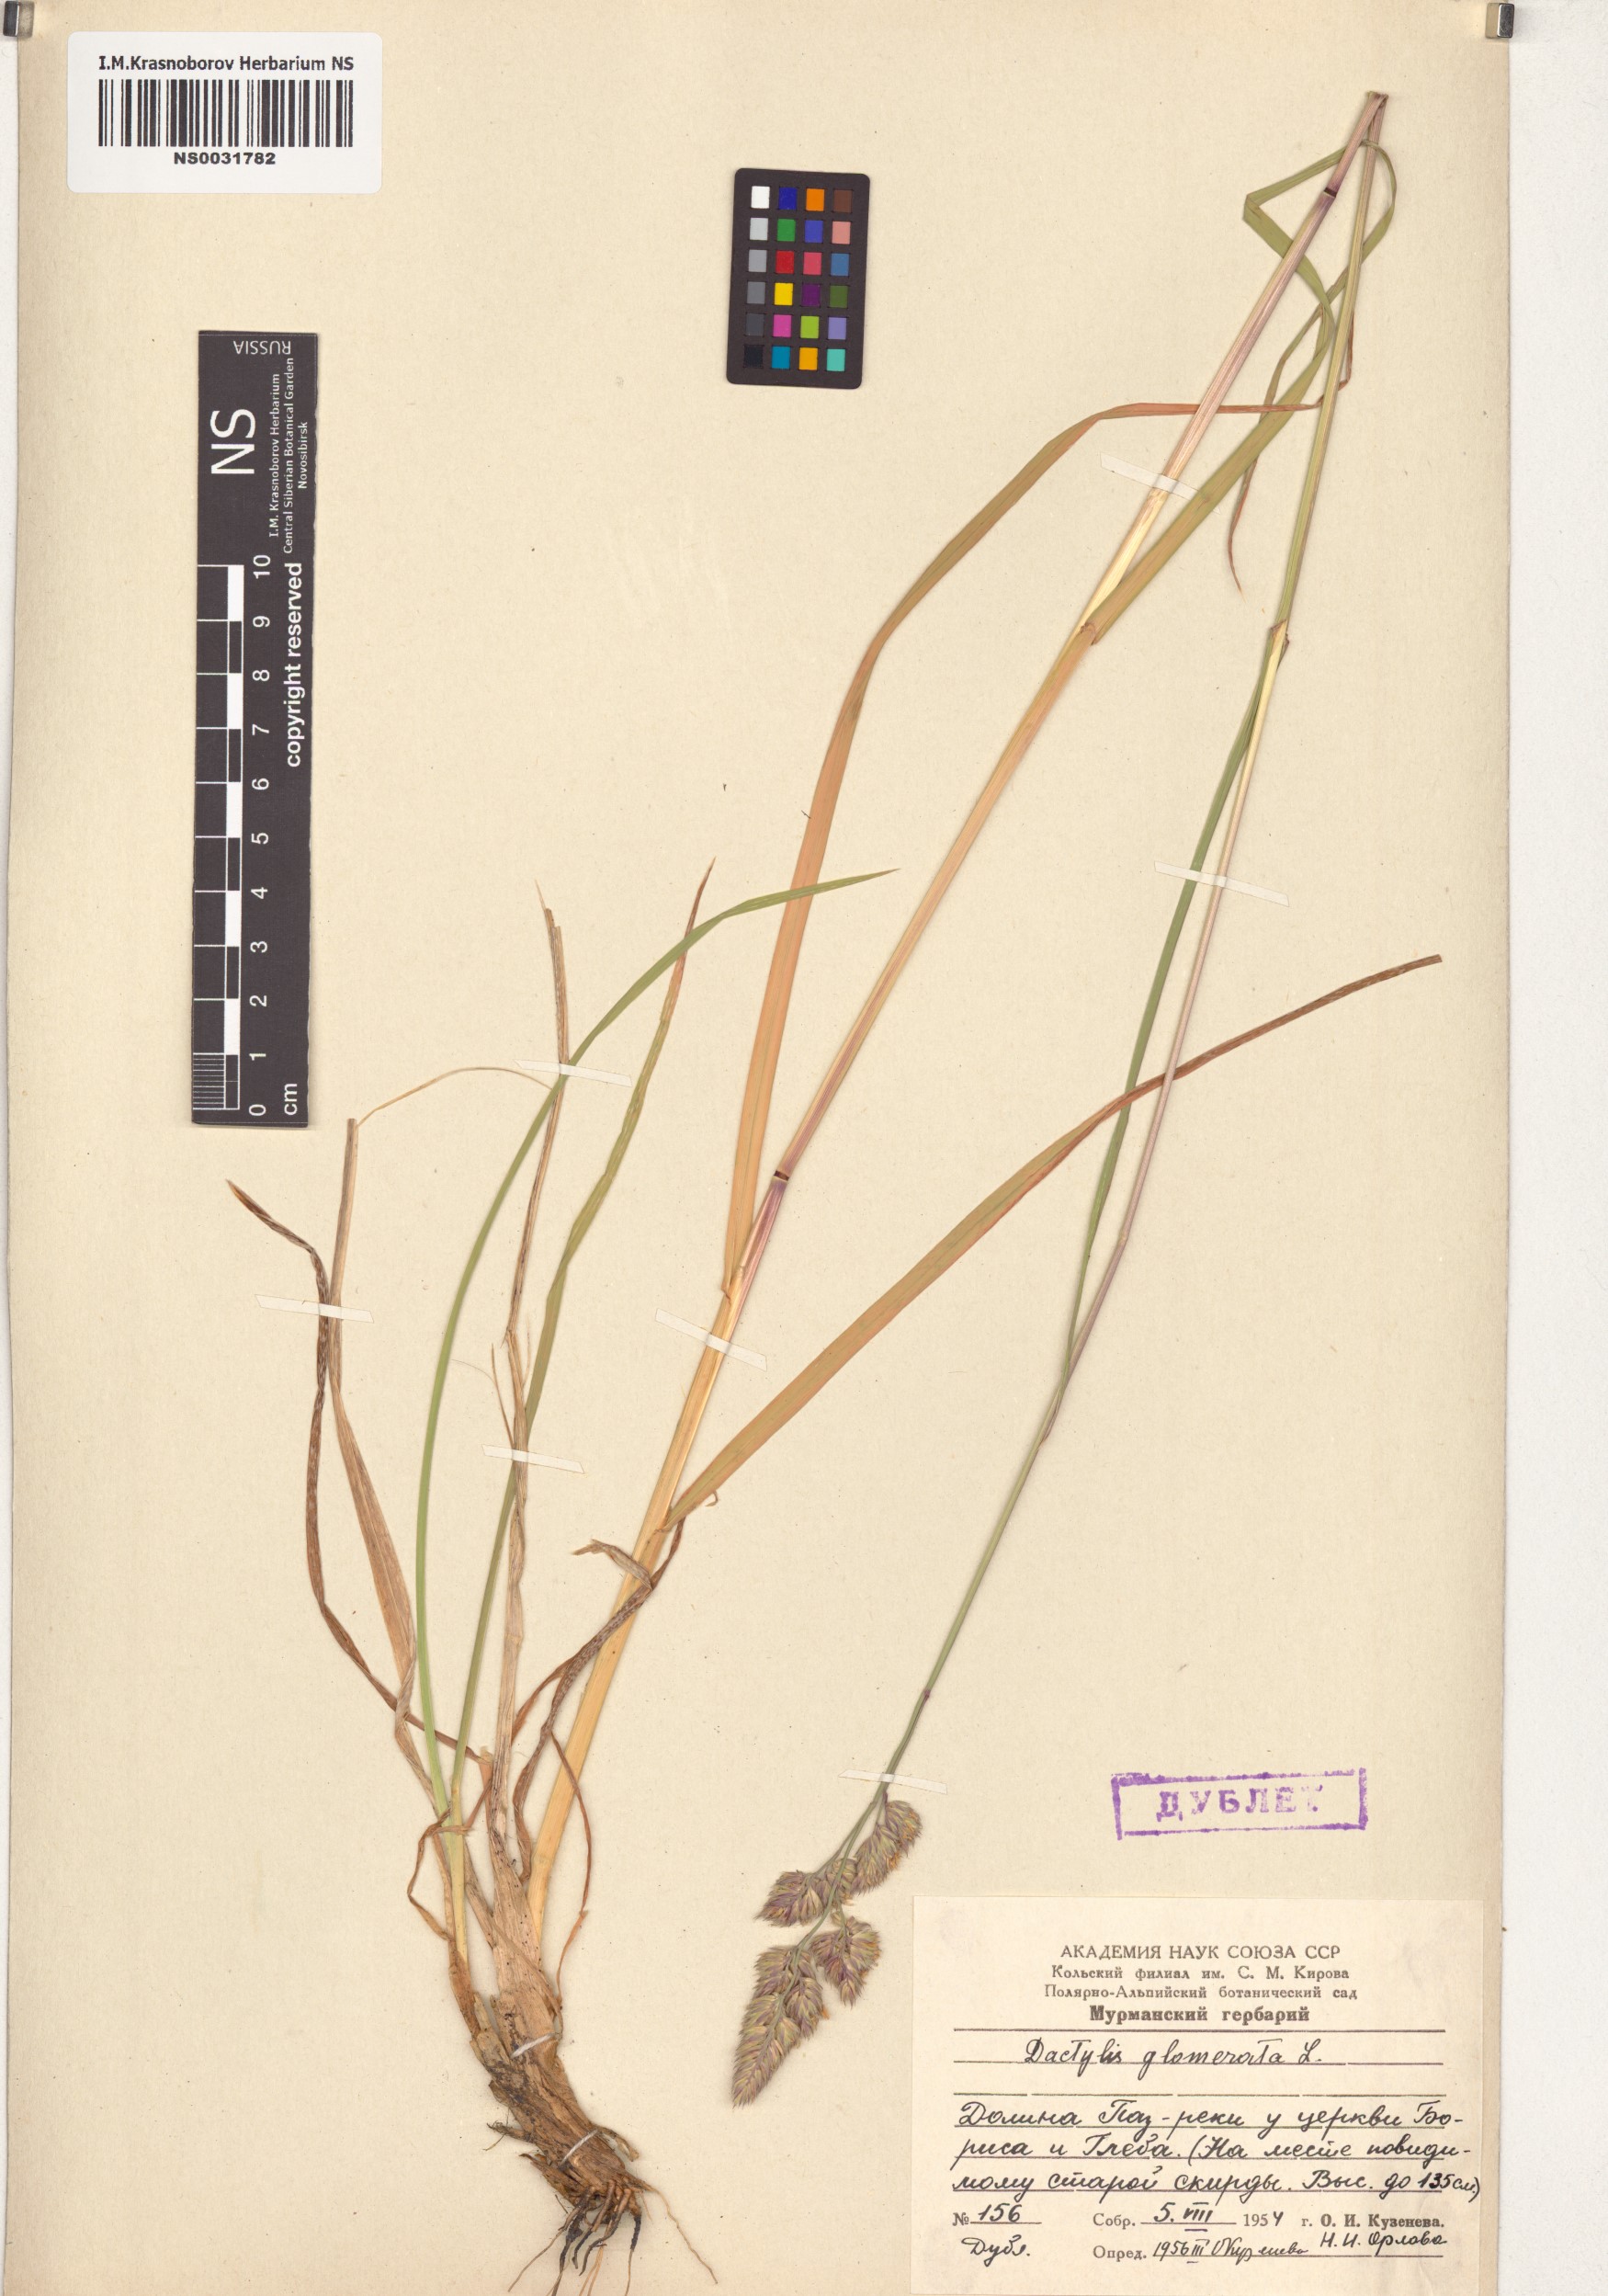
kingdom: Plantae
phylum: Tracheophyta
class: Liliopsida
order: Poales
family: Poaceae
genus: Dactylis
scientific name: Dactylis glomerata
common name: Orchardgrass
